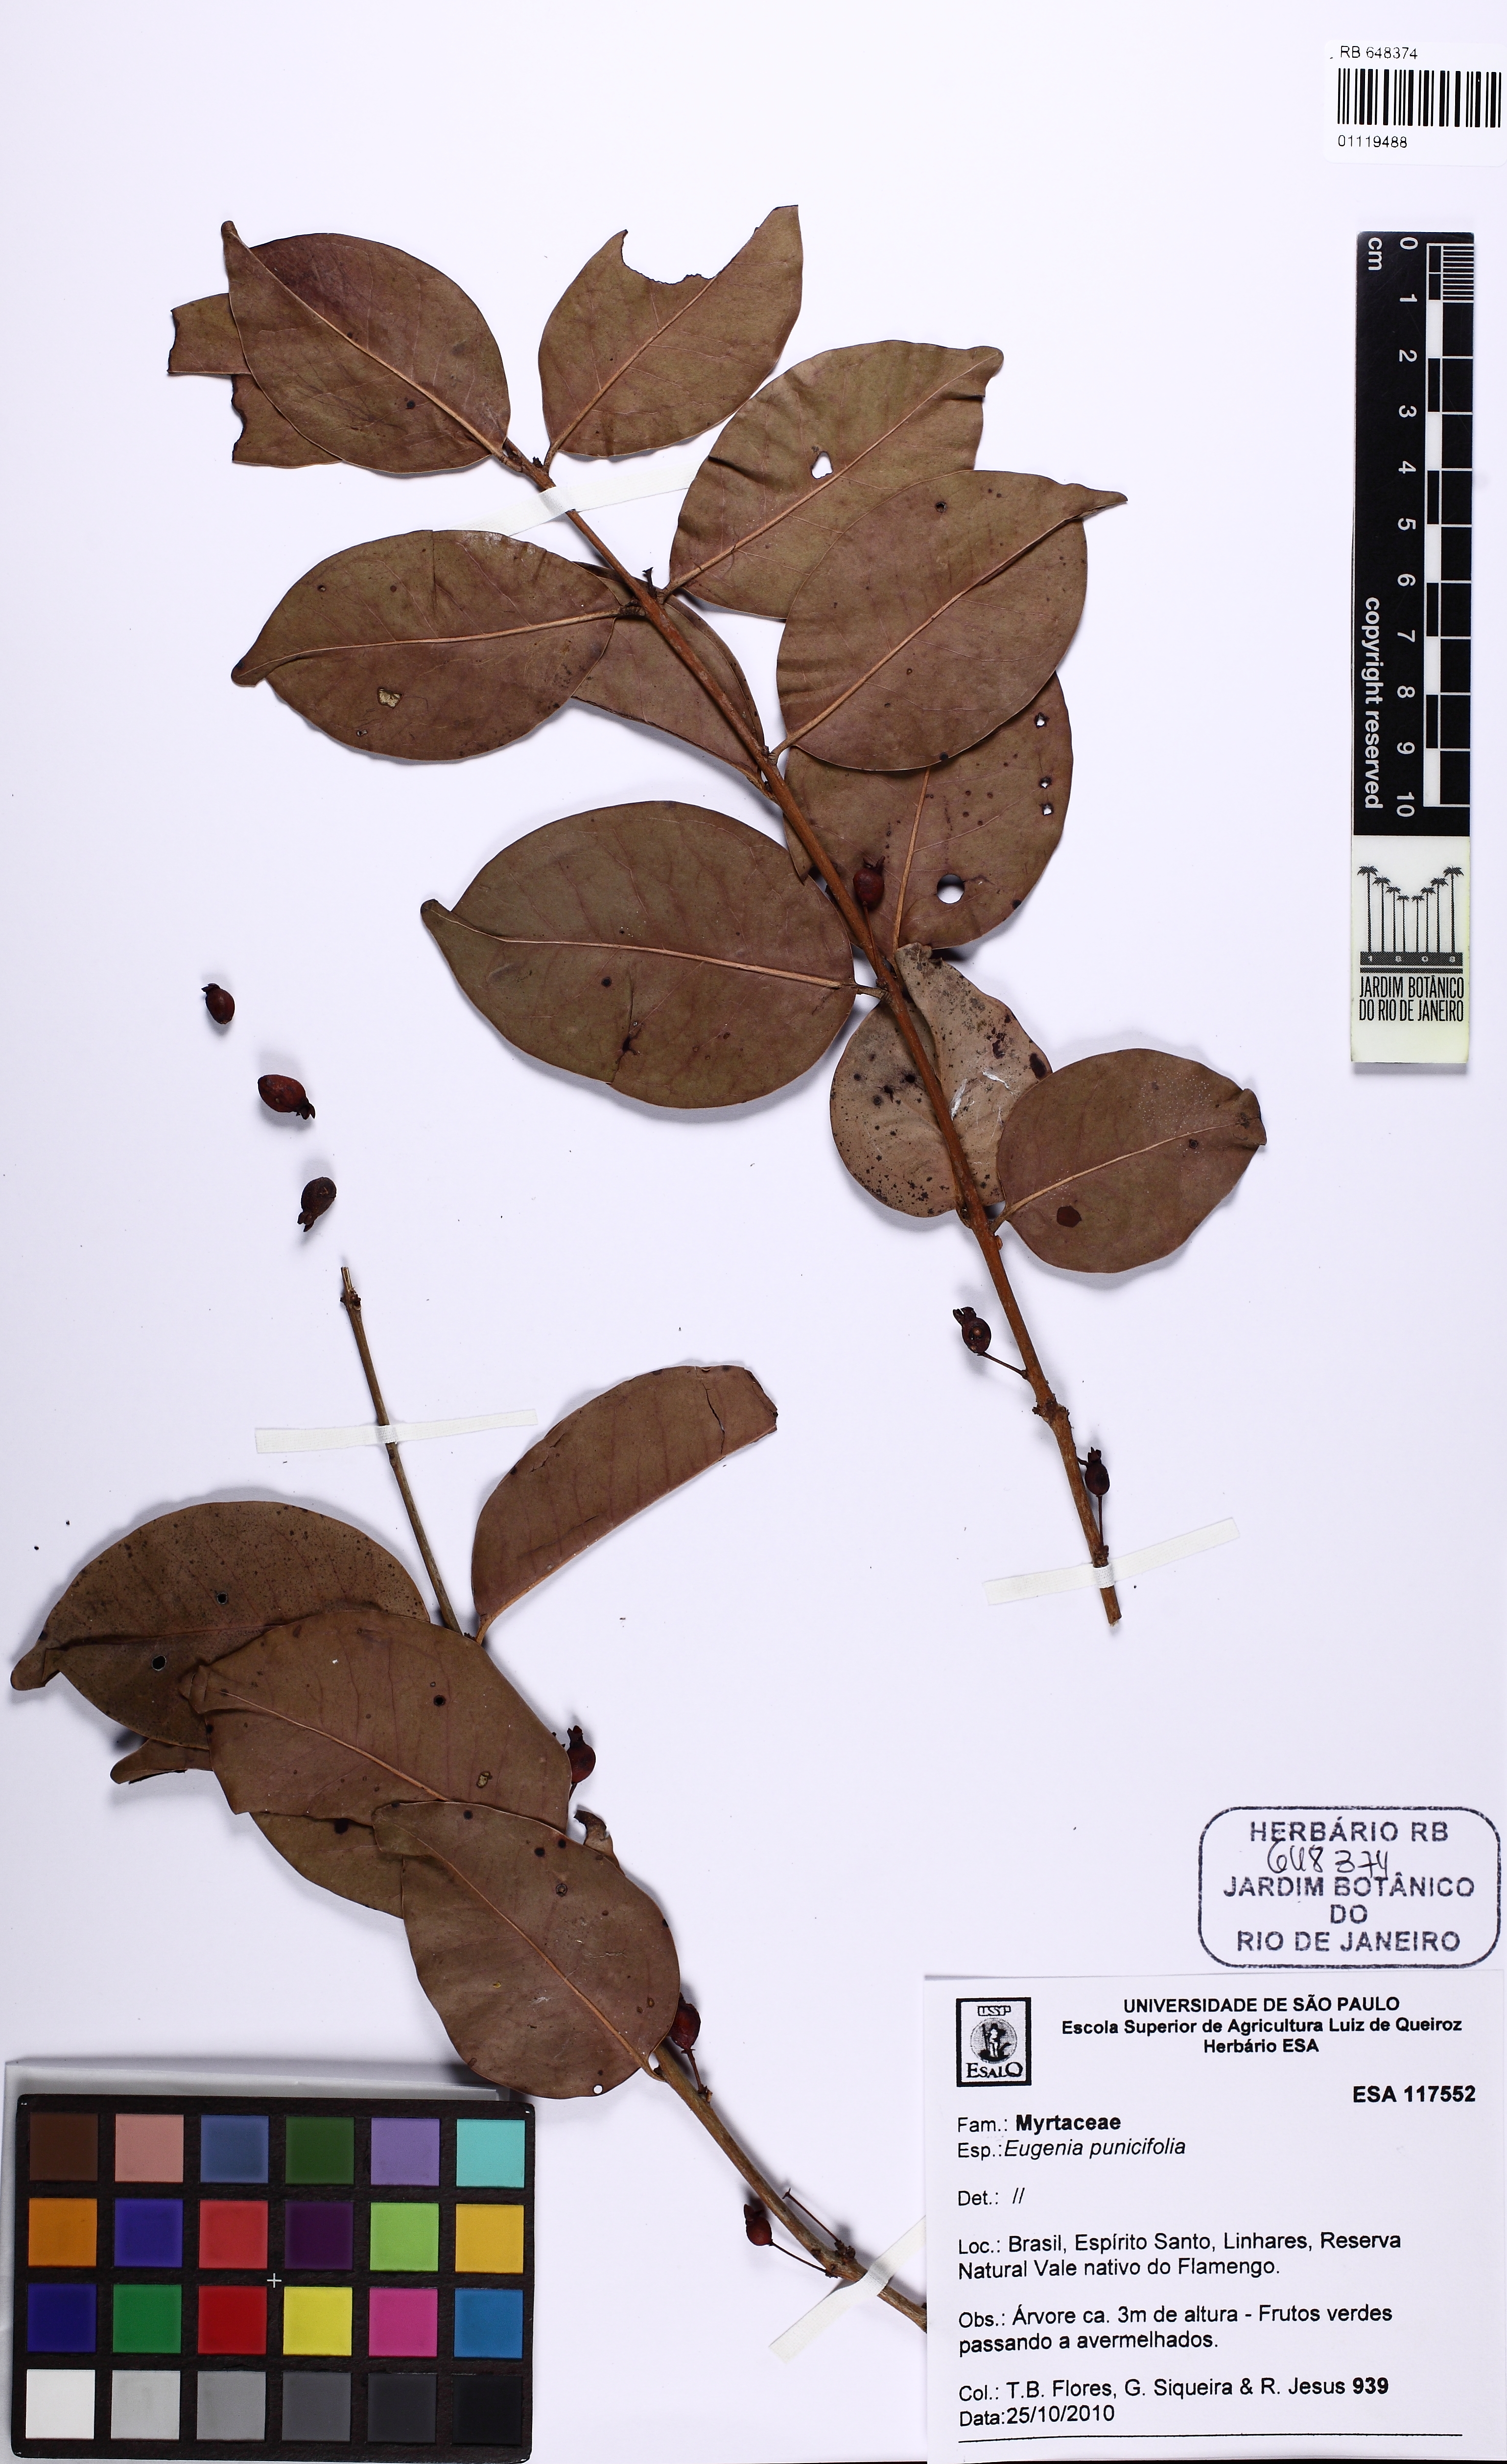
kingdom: Plantae
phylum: Tracheophyta
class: Magnoliopsida
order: Myrtales
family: Myrtaceae
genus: Eugenia
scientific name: Eugenia punicifolia
